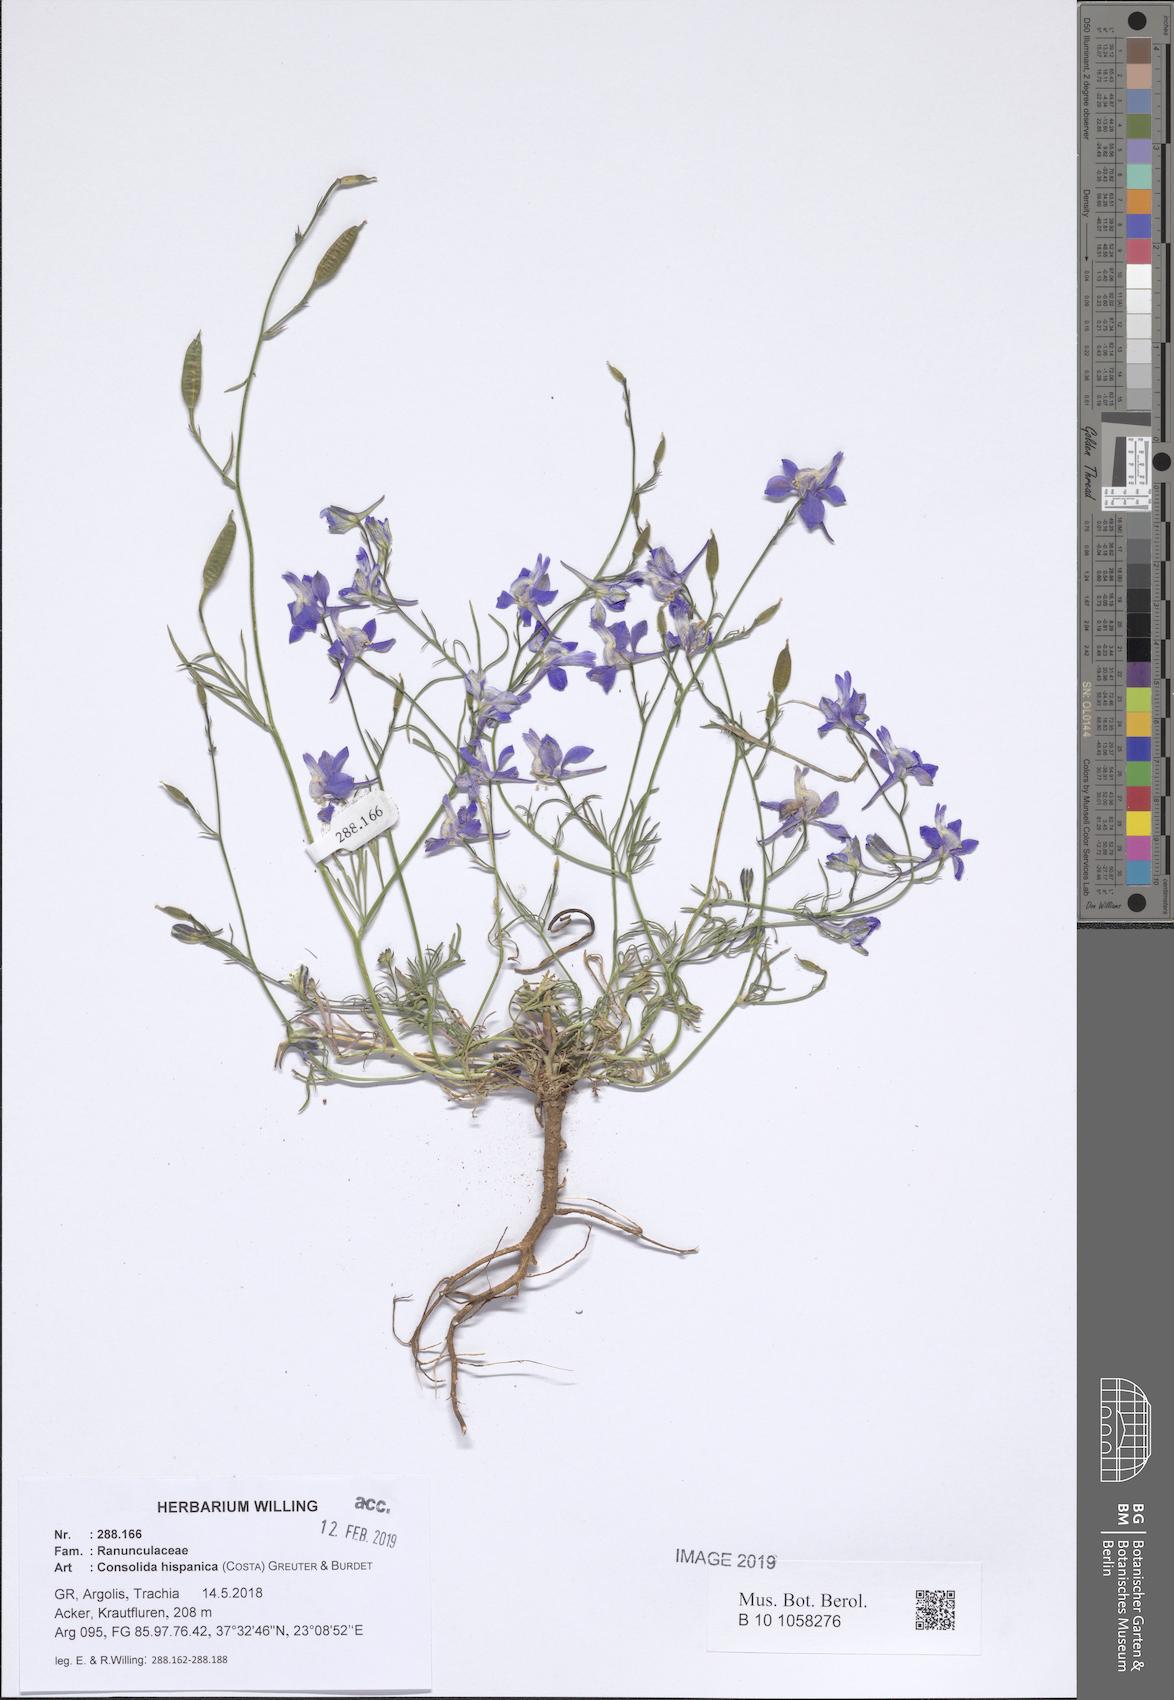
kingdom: Plantae
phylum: Tracheophyta
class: Magnoliopsida
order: Ranunculales
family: Ranunculaceae
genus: Delphinium
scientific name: Delphinium hispanicum
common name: Oriental knight's-spur
